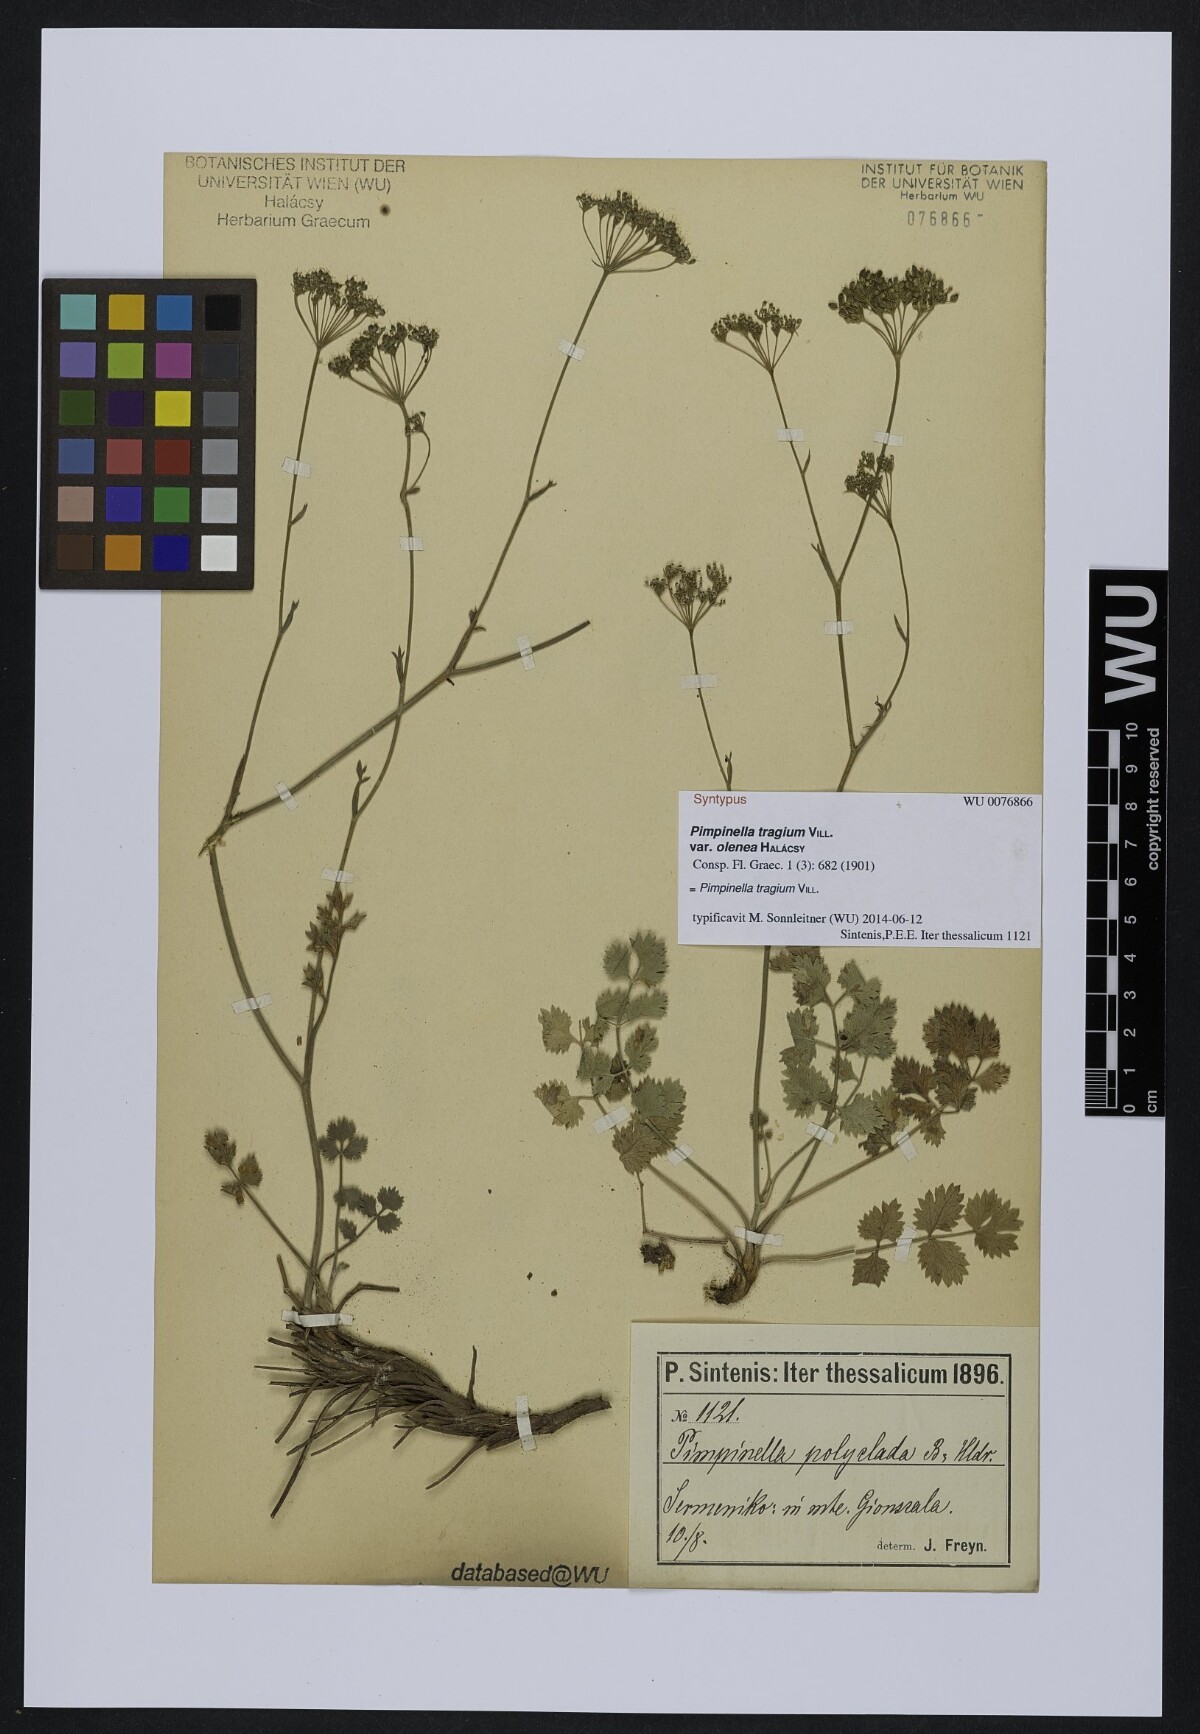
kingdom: Plantae
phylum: Tracheophyta
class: Magnoliopsida
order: Apiales
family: Apiaceae
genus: Pimpinella
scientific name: Pimpinella tragium
